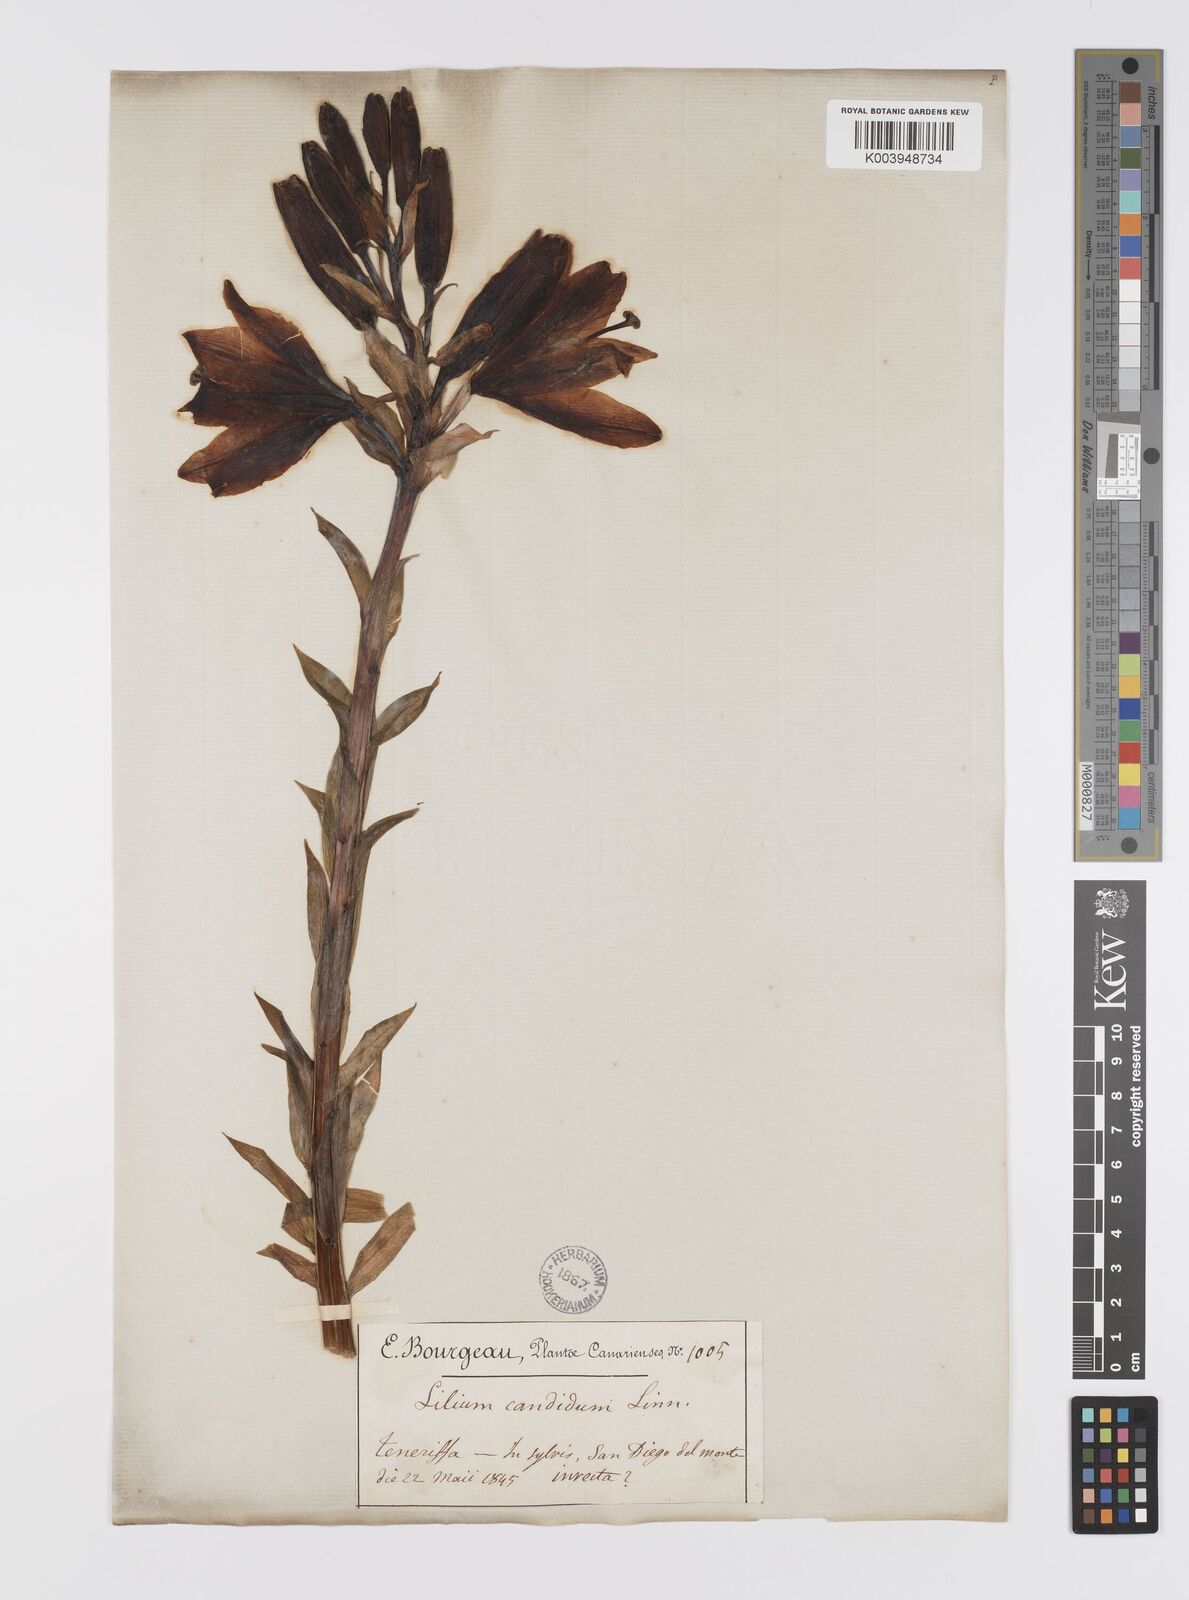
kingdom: Plantae
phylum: Tracheophyta
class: Liliopsida
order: Liliales
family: Liliaceae
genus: Lilium
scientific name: Lilium candidum
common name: Madonna lily
